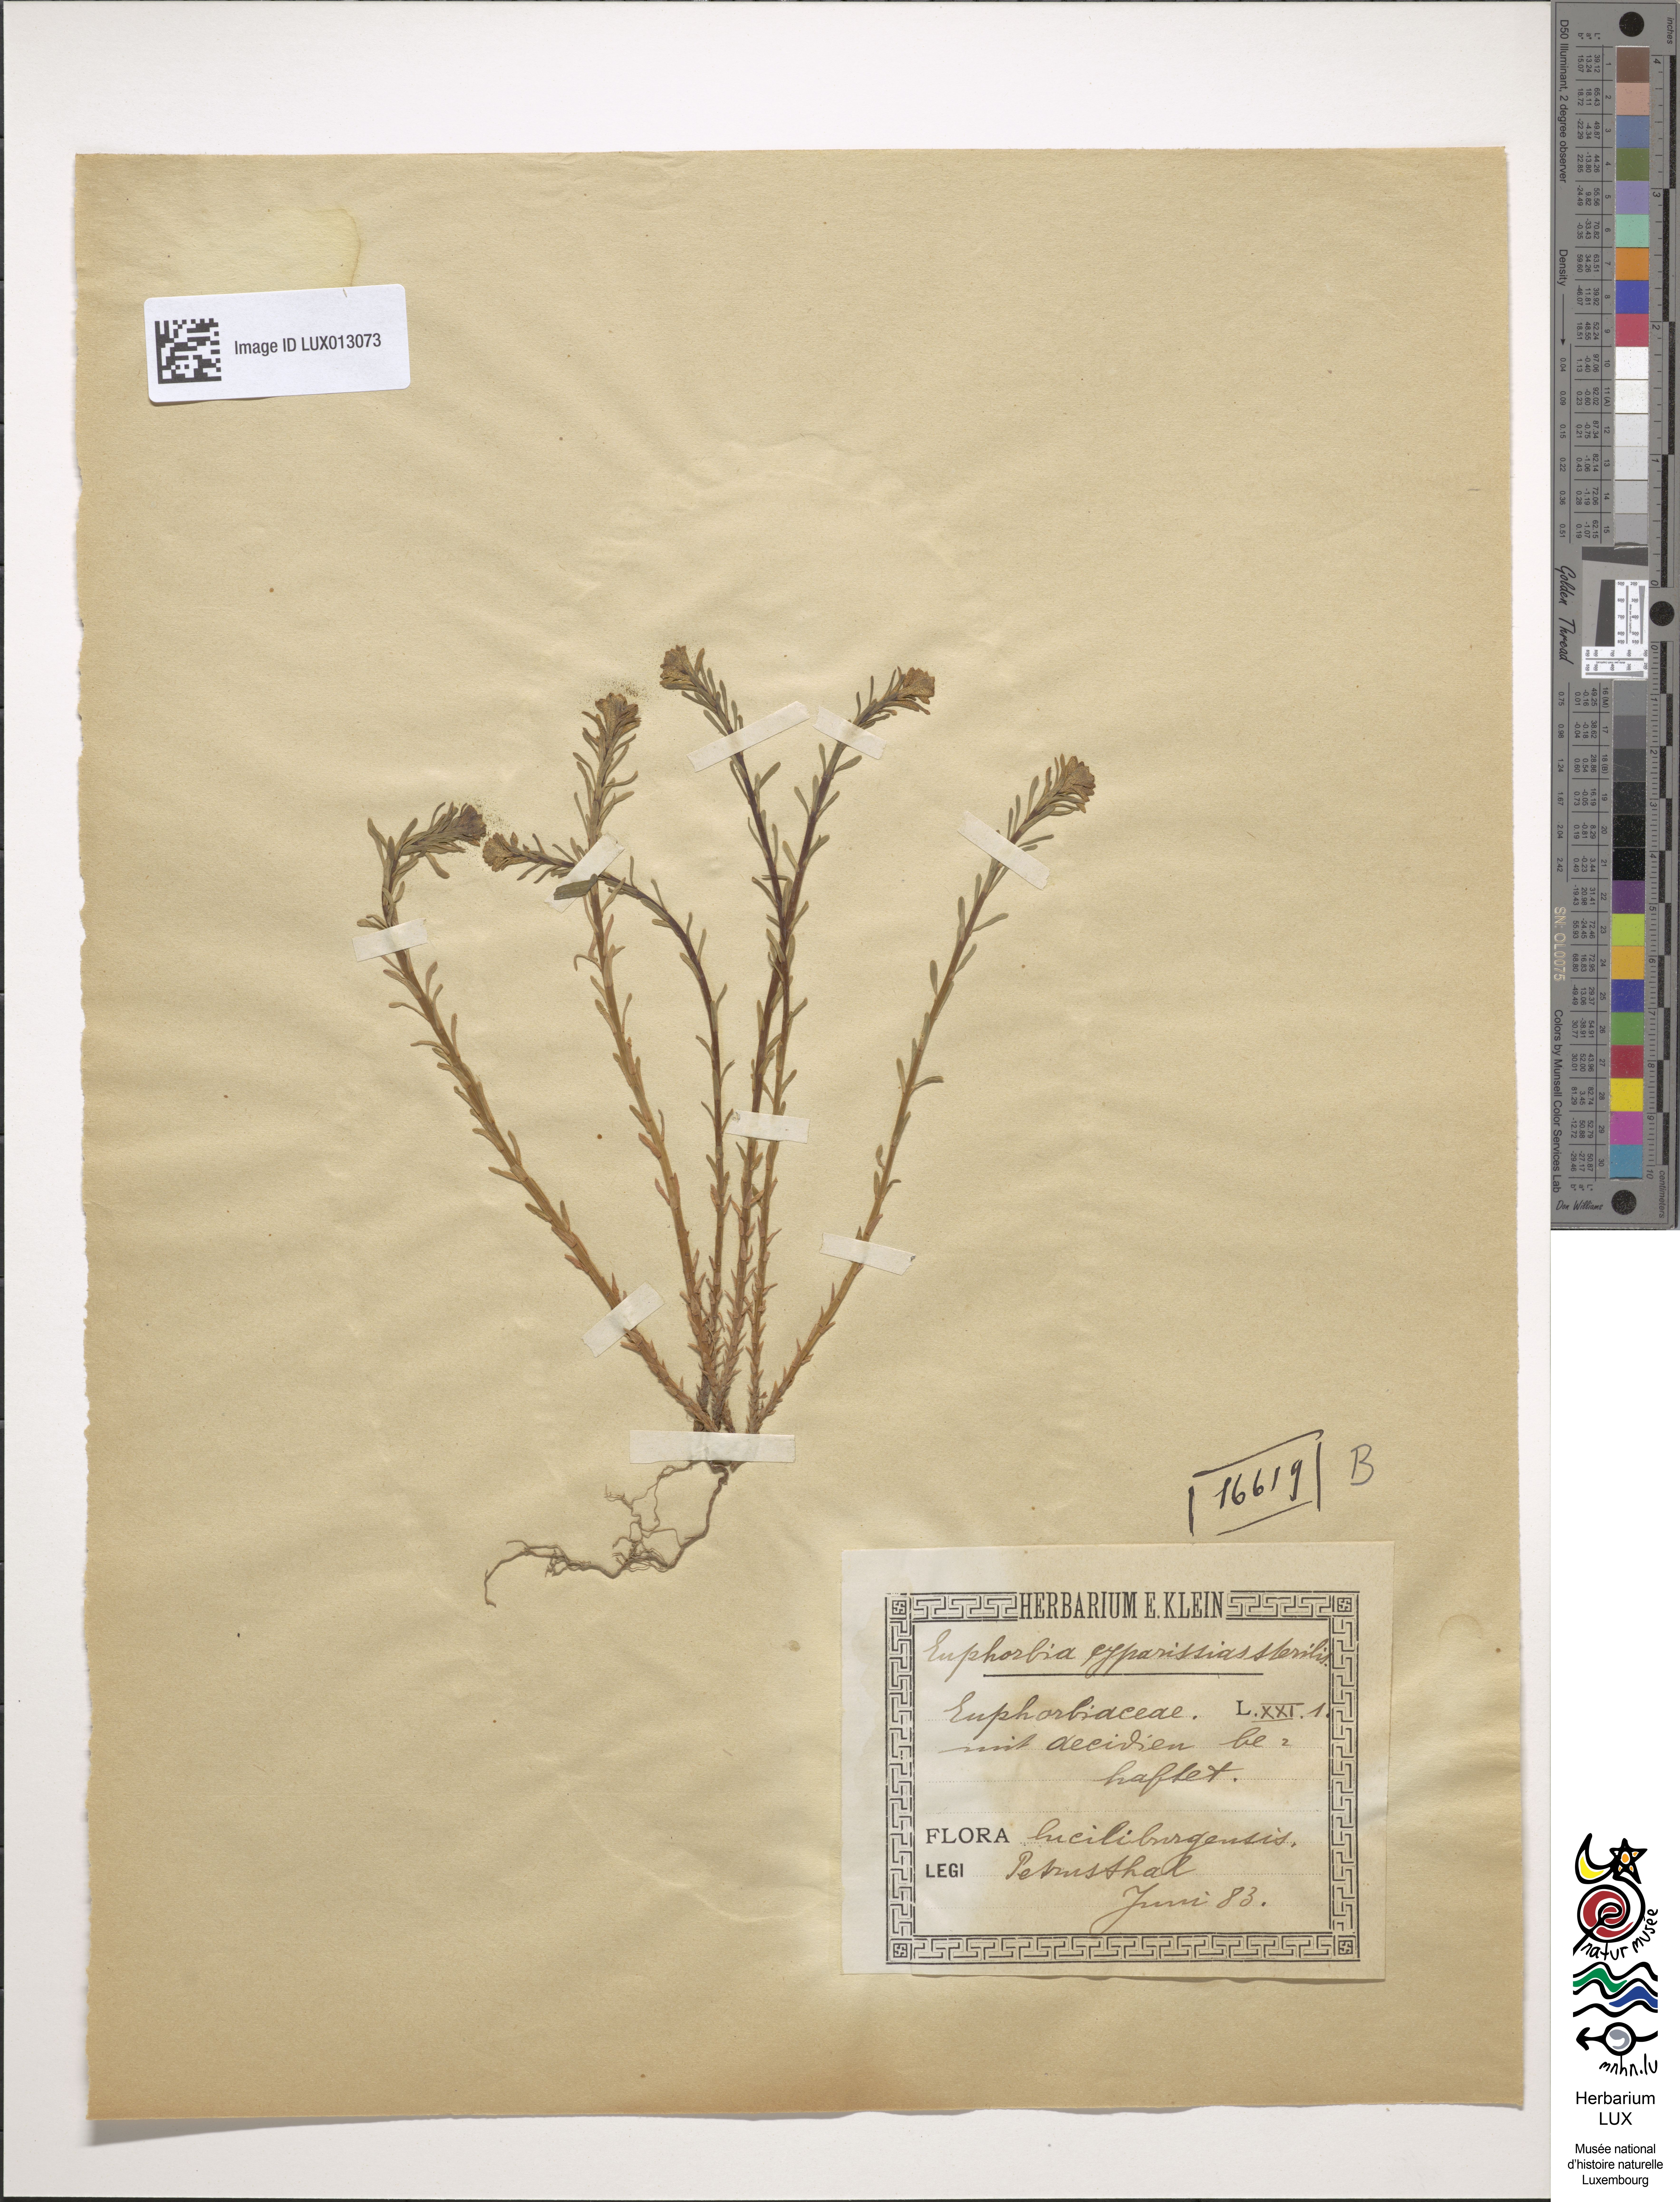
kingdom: Plantae
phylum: Tracheophyta
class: Magnoliopsida
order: Malpighiales
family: Euphorbiaceae
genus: Euphorbia
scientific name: Euphorbia cyparissias
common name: Cypress spurge
